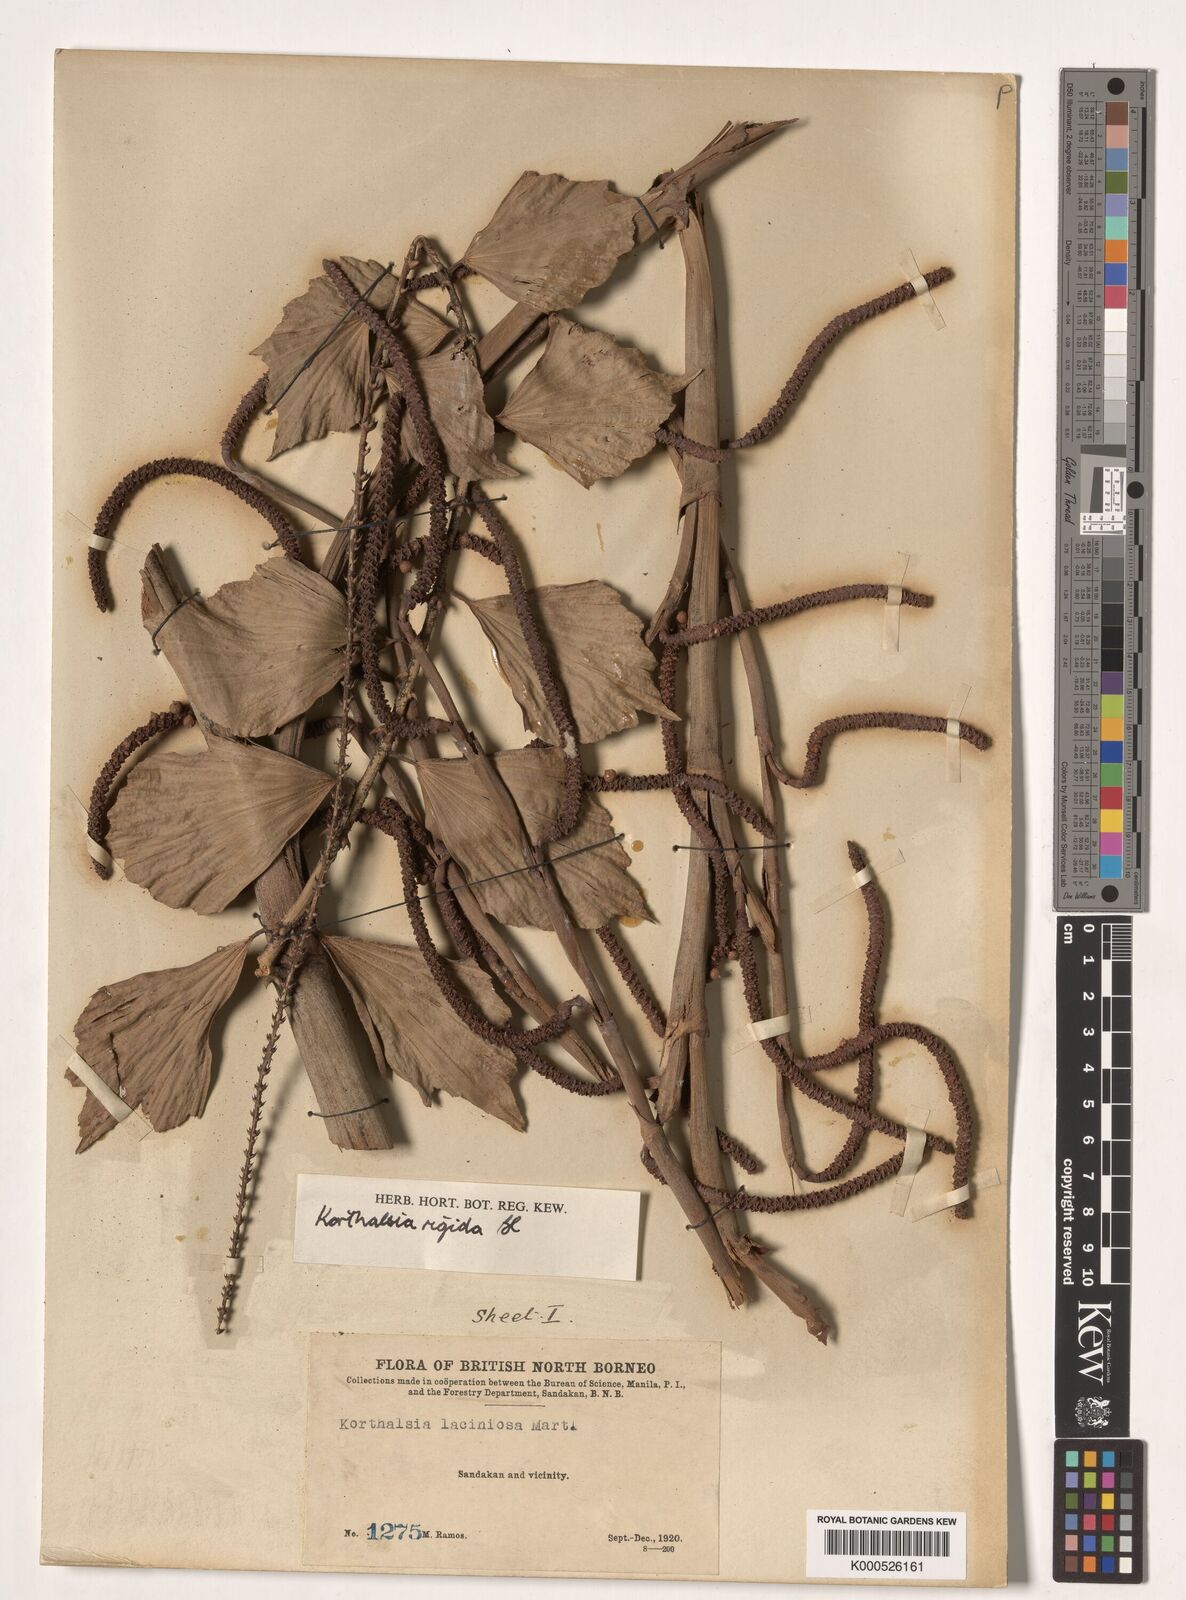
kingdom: Plantae
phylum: Tracheophyta
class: Liliopsida
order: Arecales
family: Arecaceae
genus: Korthalsia
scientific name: Korthalsia rigida
